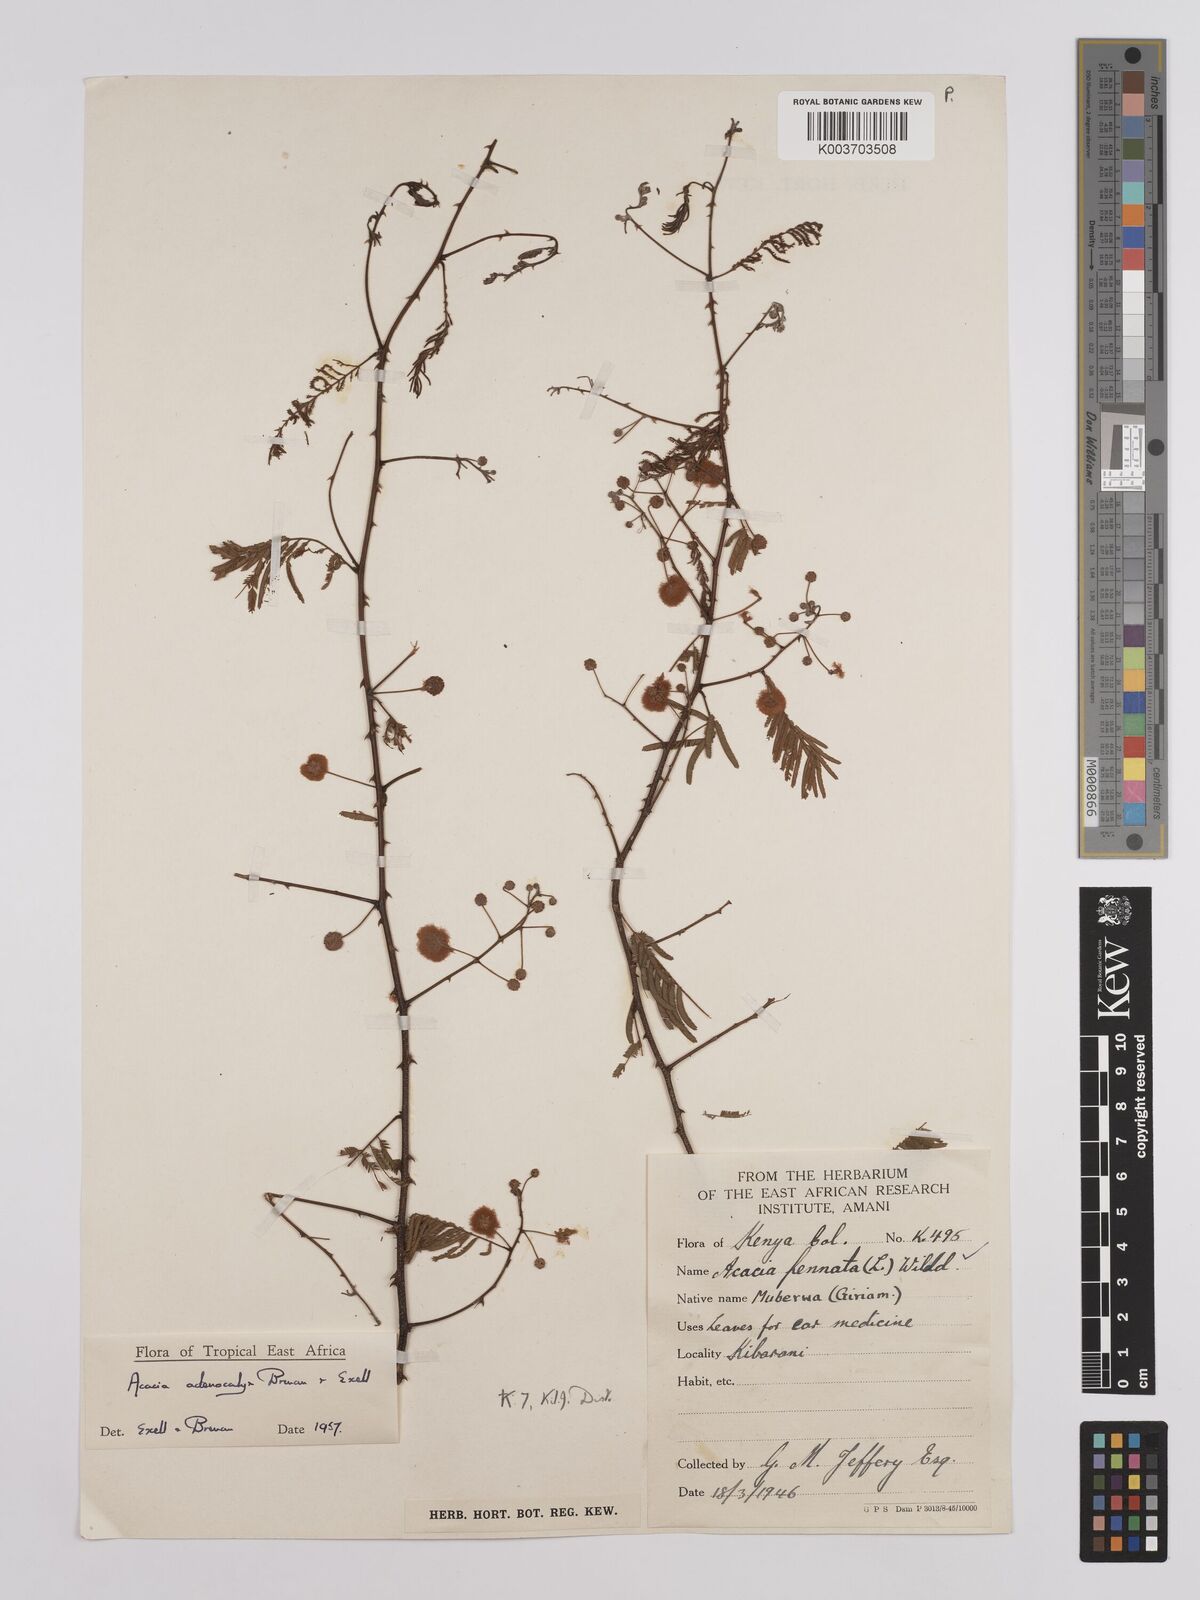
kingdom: Plantae
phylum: Tracheophyta
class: Magnoliopsida
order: Fabales
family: Fabaceae
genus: Senegalia
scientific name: Senegalia adenocalyx
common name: Pfurura
